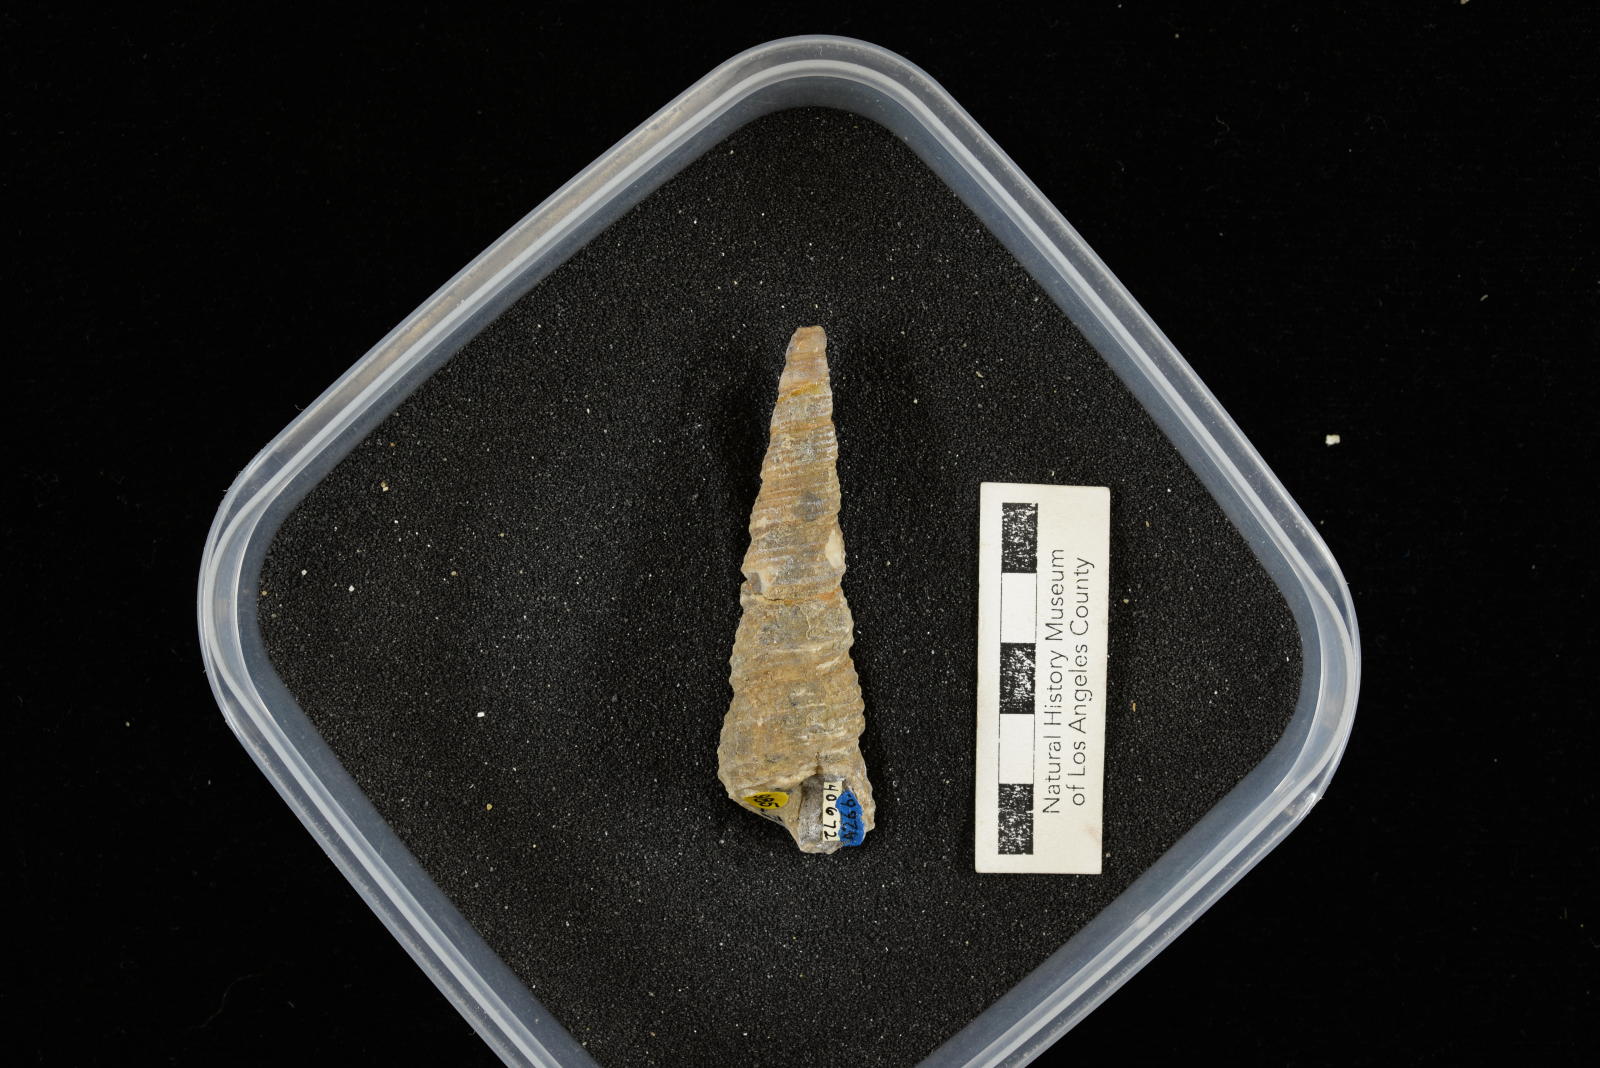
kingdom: Animalia
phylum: Mollusca
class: Gastropoda
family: Turritellidae
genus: Turritella
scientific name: Turritella chicoensis
